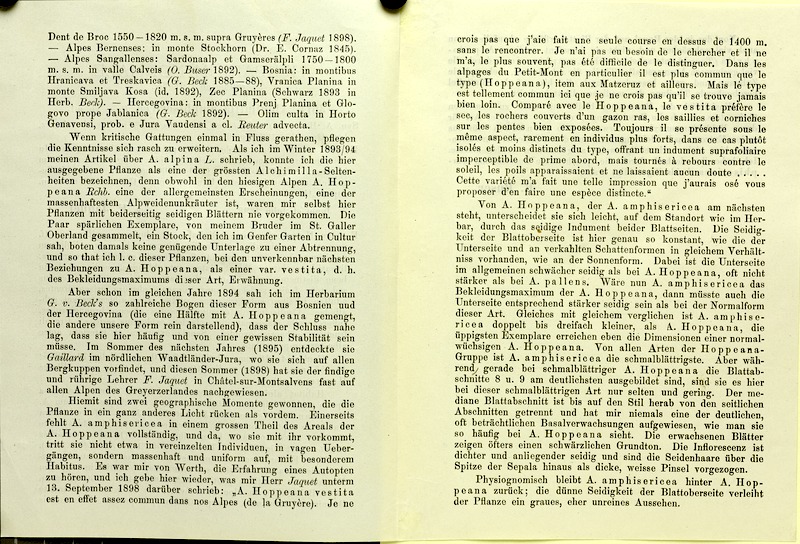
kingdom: Plantae
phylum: Tracheophyta
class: Magnoliopsida
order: Rosales
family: Rosaceae
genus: Alchemilla
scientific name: Alchemilla amphisericea
